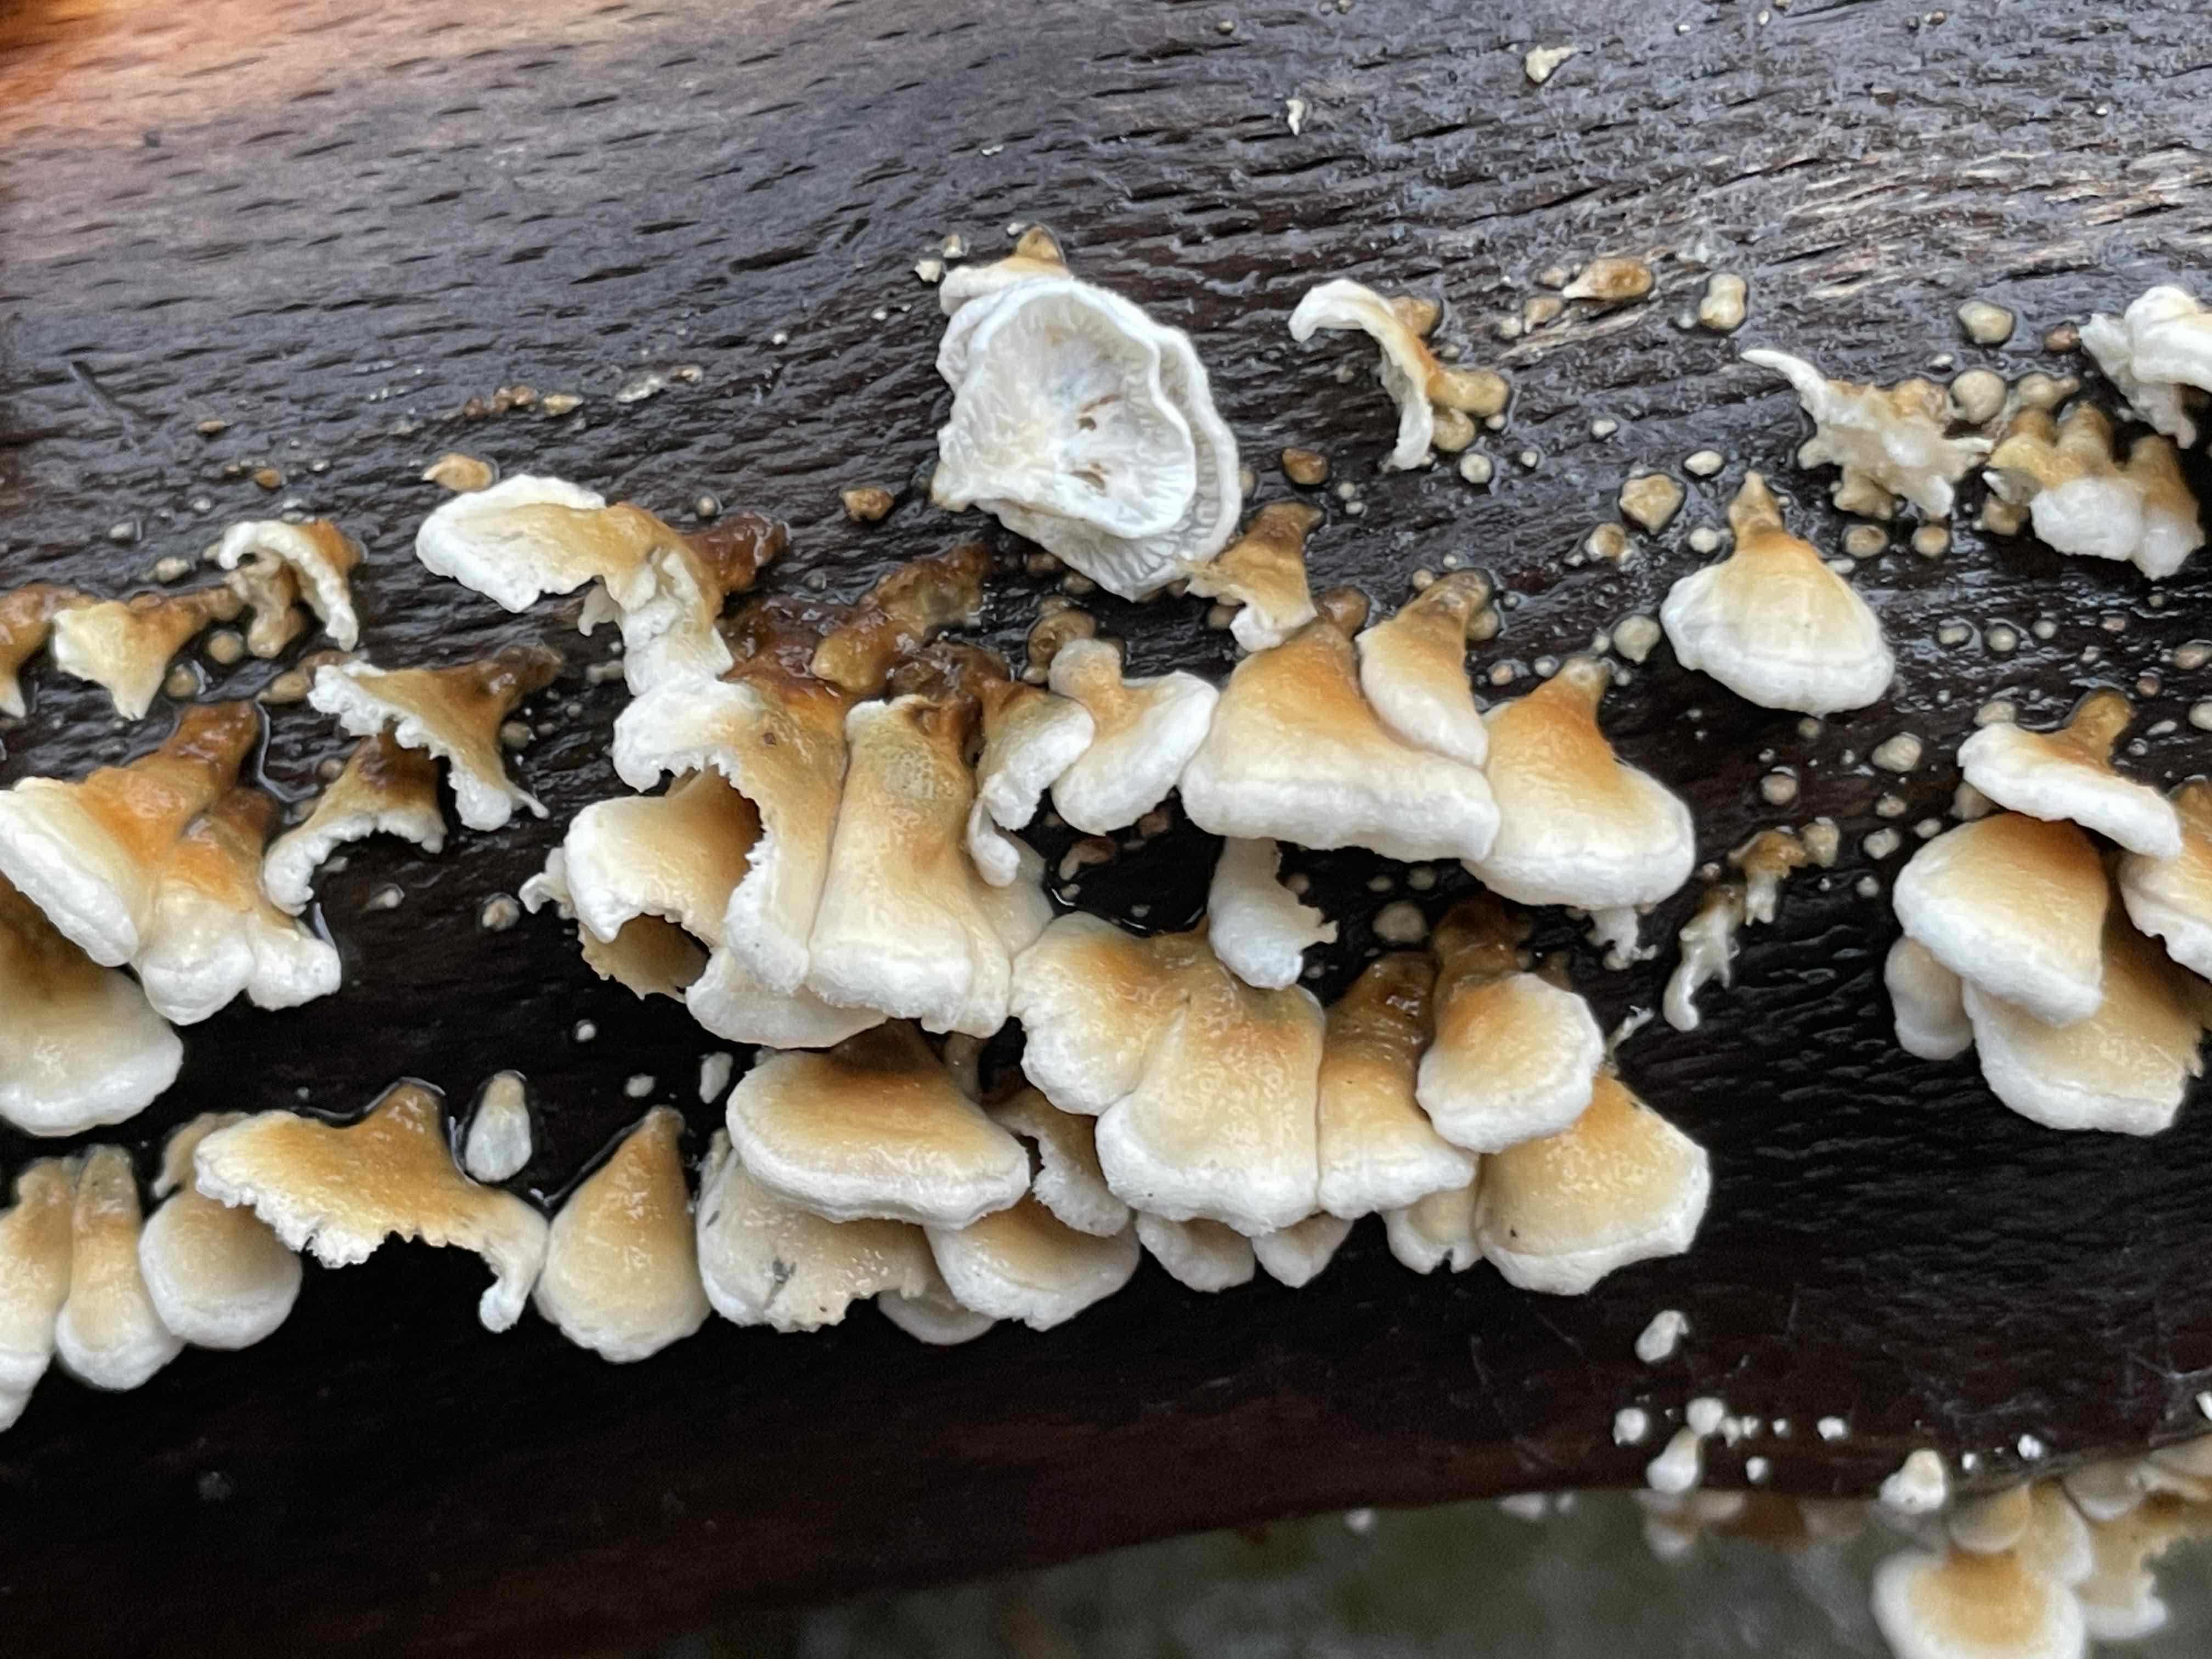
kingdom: Fungi
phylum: Basidiomycota
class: Agaricomycetes
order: Amylocorticiales
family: Amylocorticiaceae
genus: Plicaturopsis
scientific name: Plicaturopsis crispa
